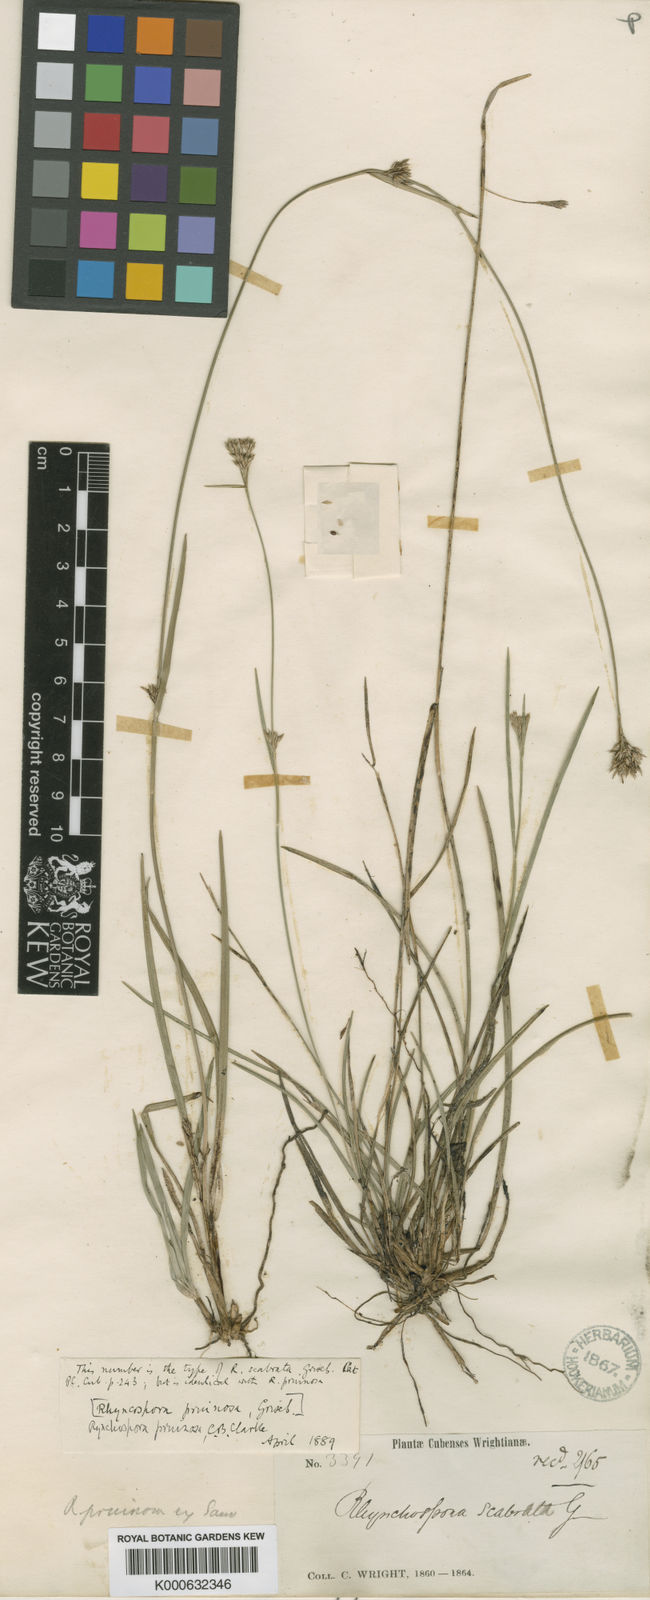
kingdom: Plantae
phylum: Tracheophyta
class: Liliopsida
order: Poales
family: Cyperaceae
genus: Rhynchospora
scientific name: Rhynchospora pruinosa
